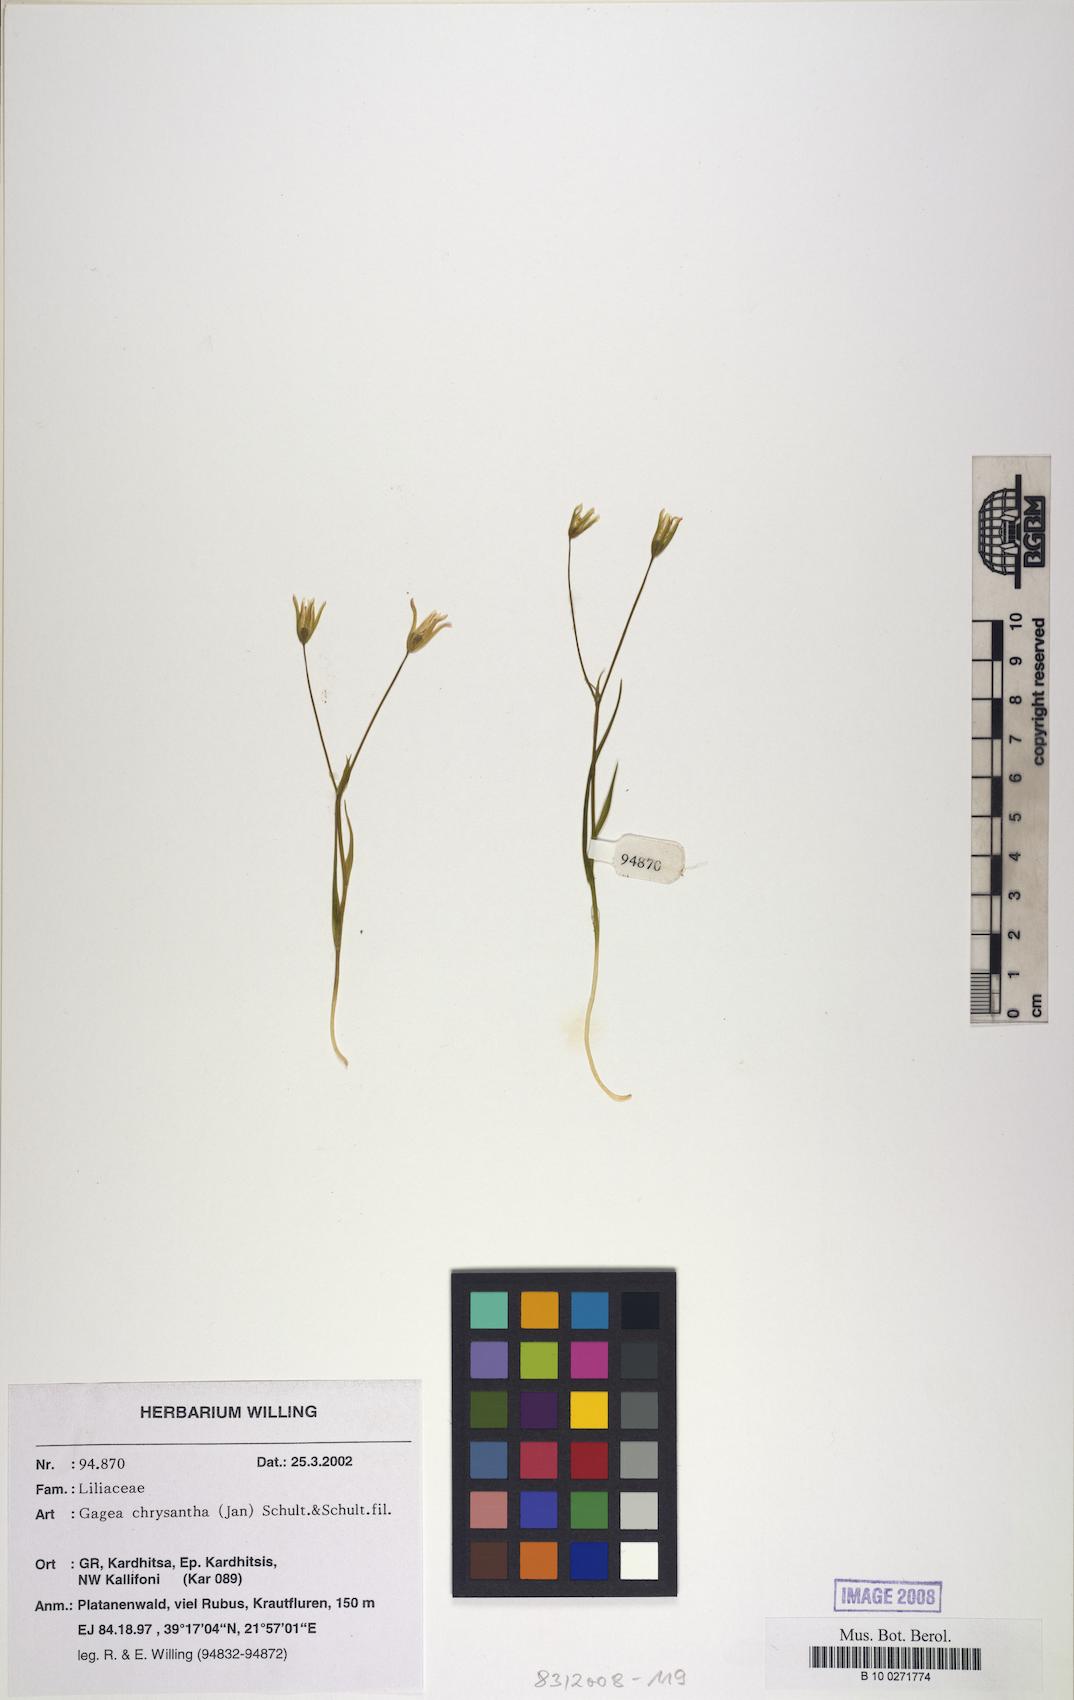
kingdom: Plantae
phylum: Tracheophyta
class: Liliopsida
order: Liliales
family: Liliaceae
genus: Gagea
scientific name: Gagea chrysantha
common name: Golden gagea
